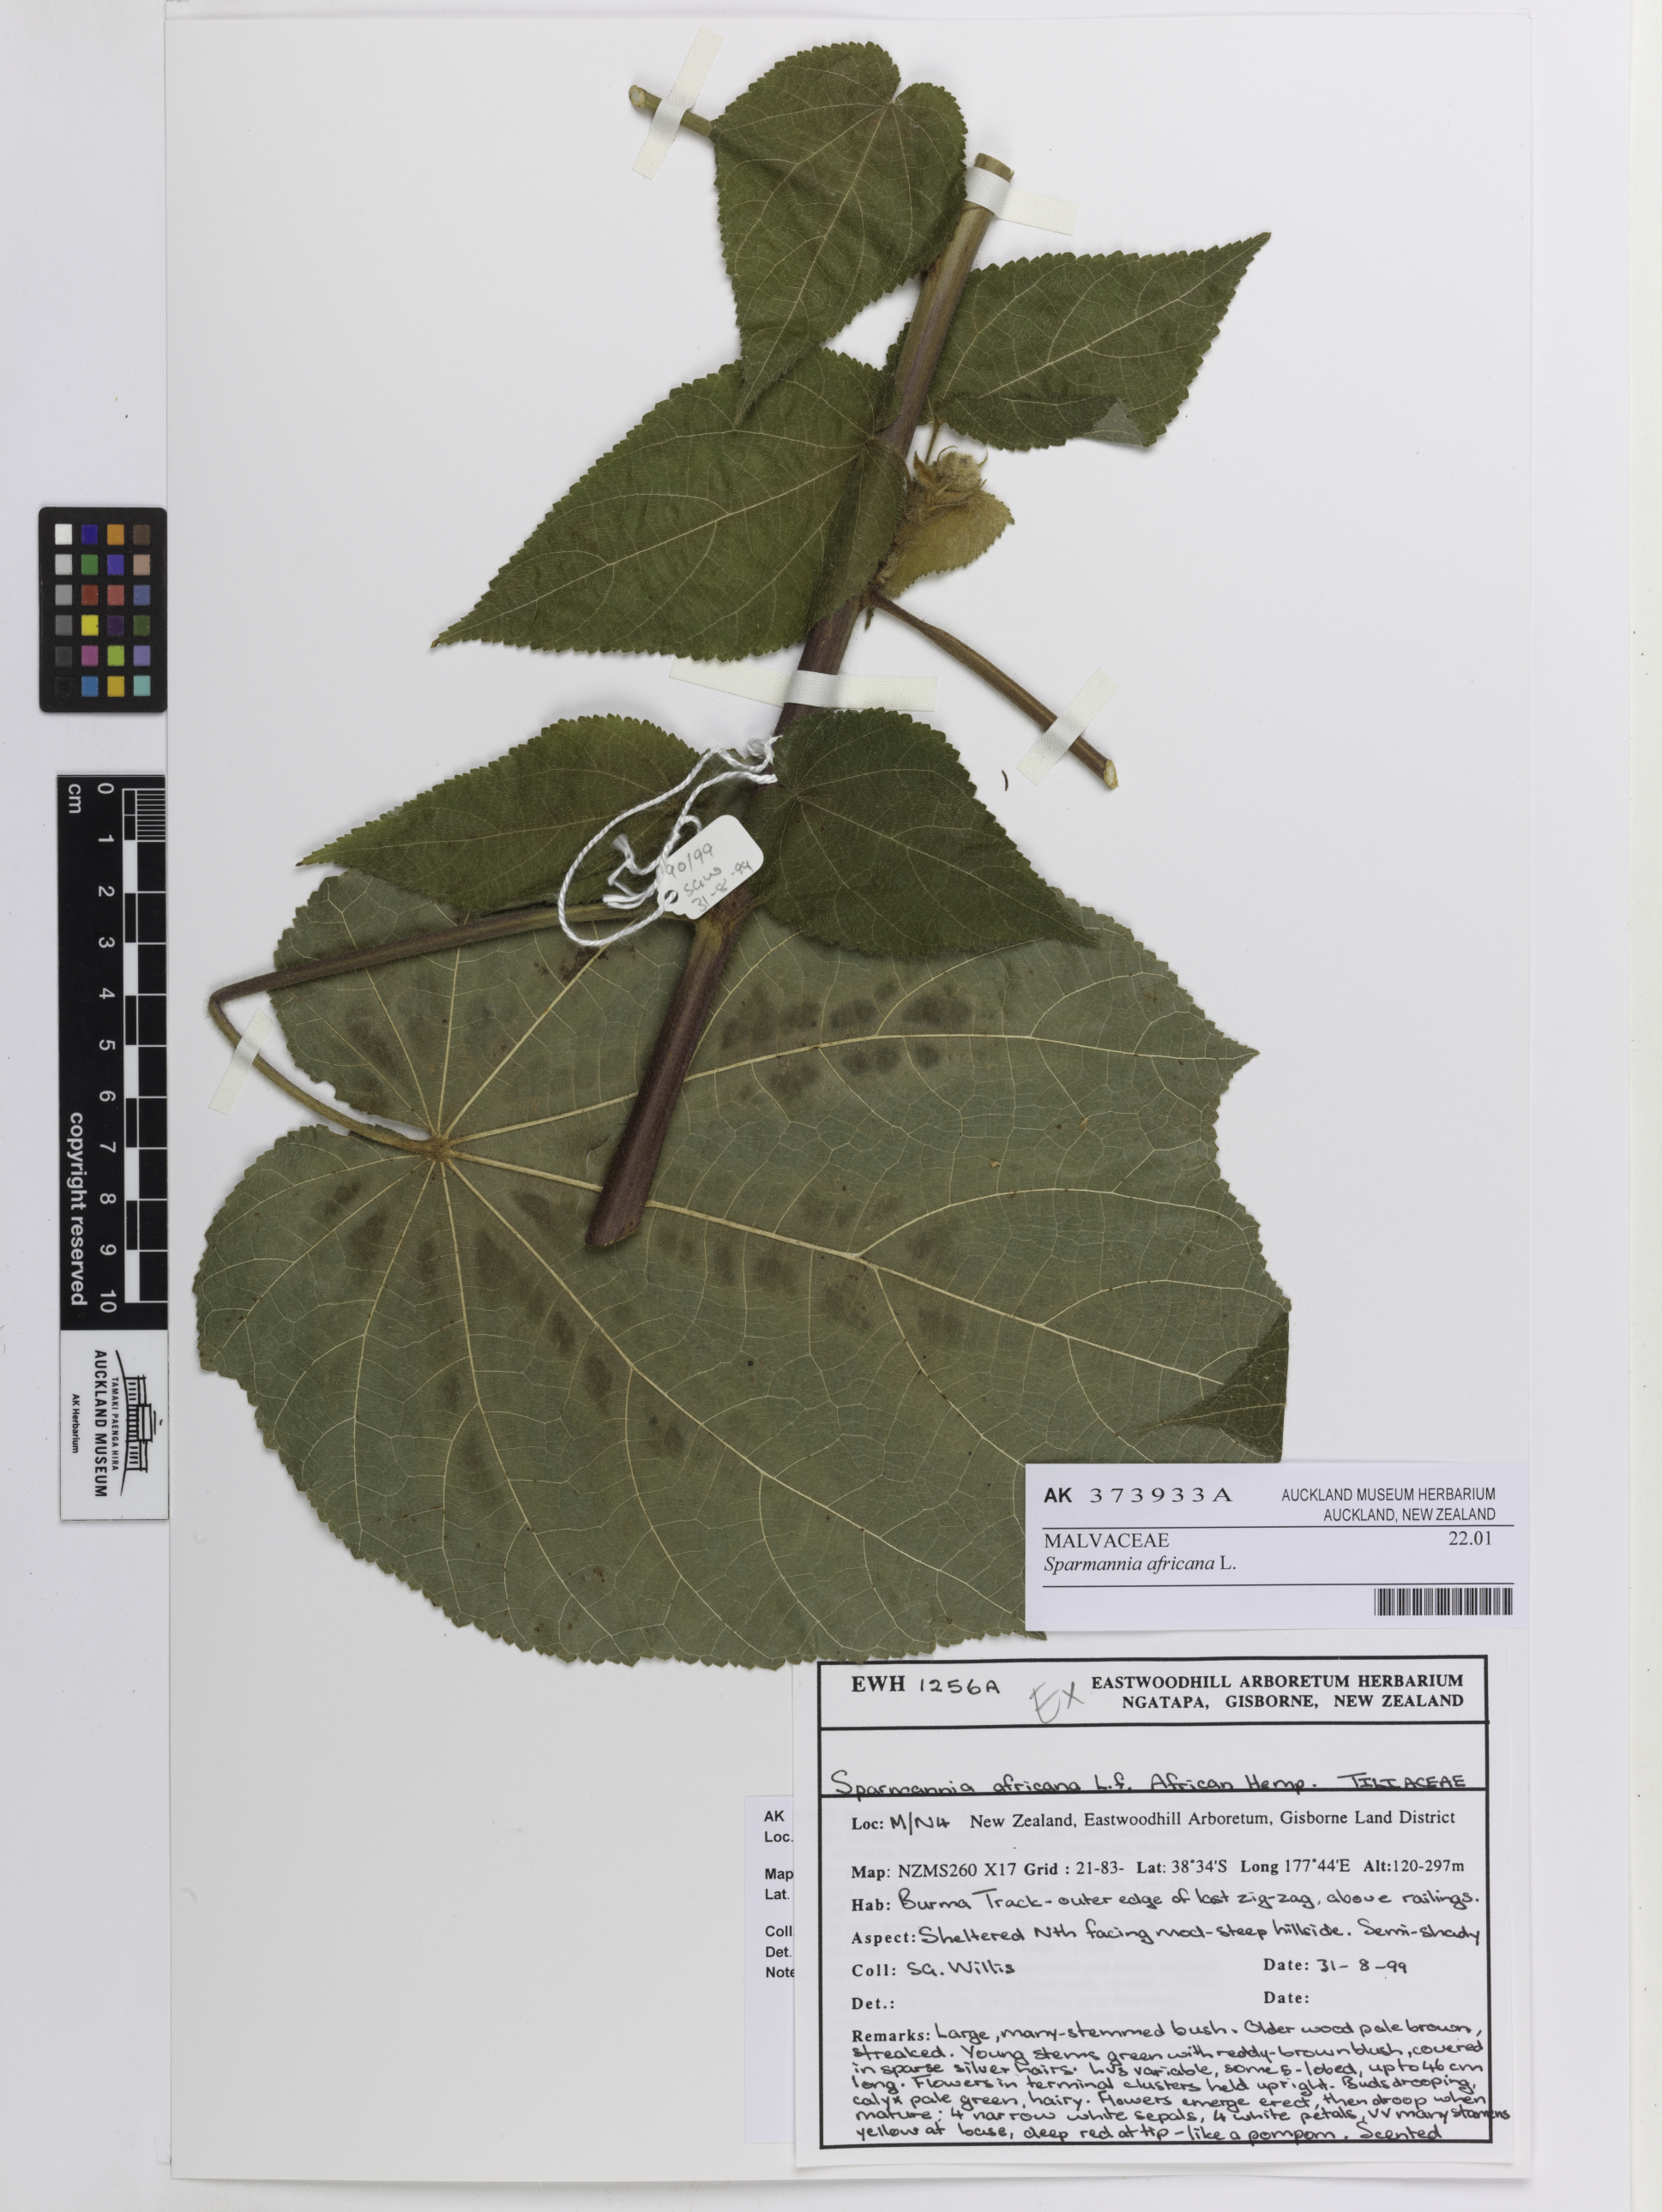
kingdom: Plantae
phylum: Tracheophyta
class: Magnoliopsida
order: Malvales
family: Malvaceae
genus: Sparrmannia
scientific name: Sparrmannia africana
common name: African-hemp
